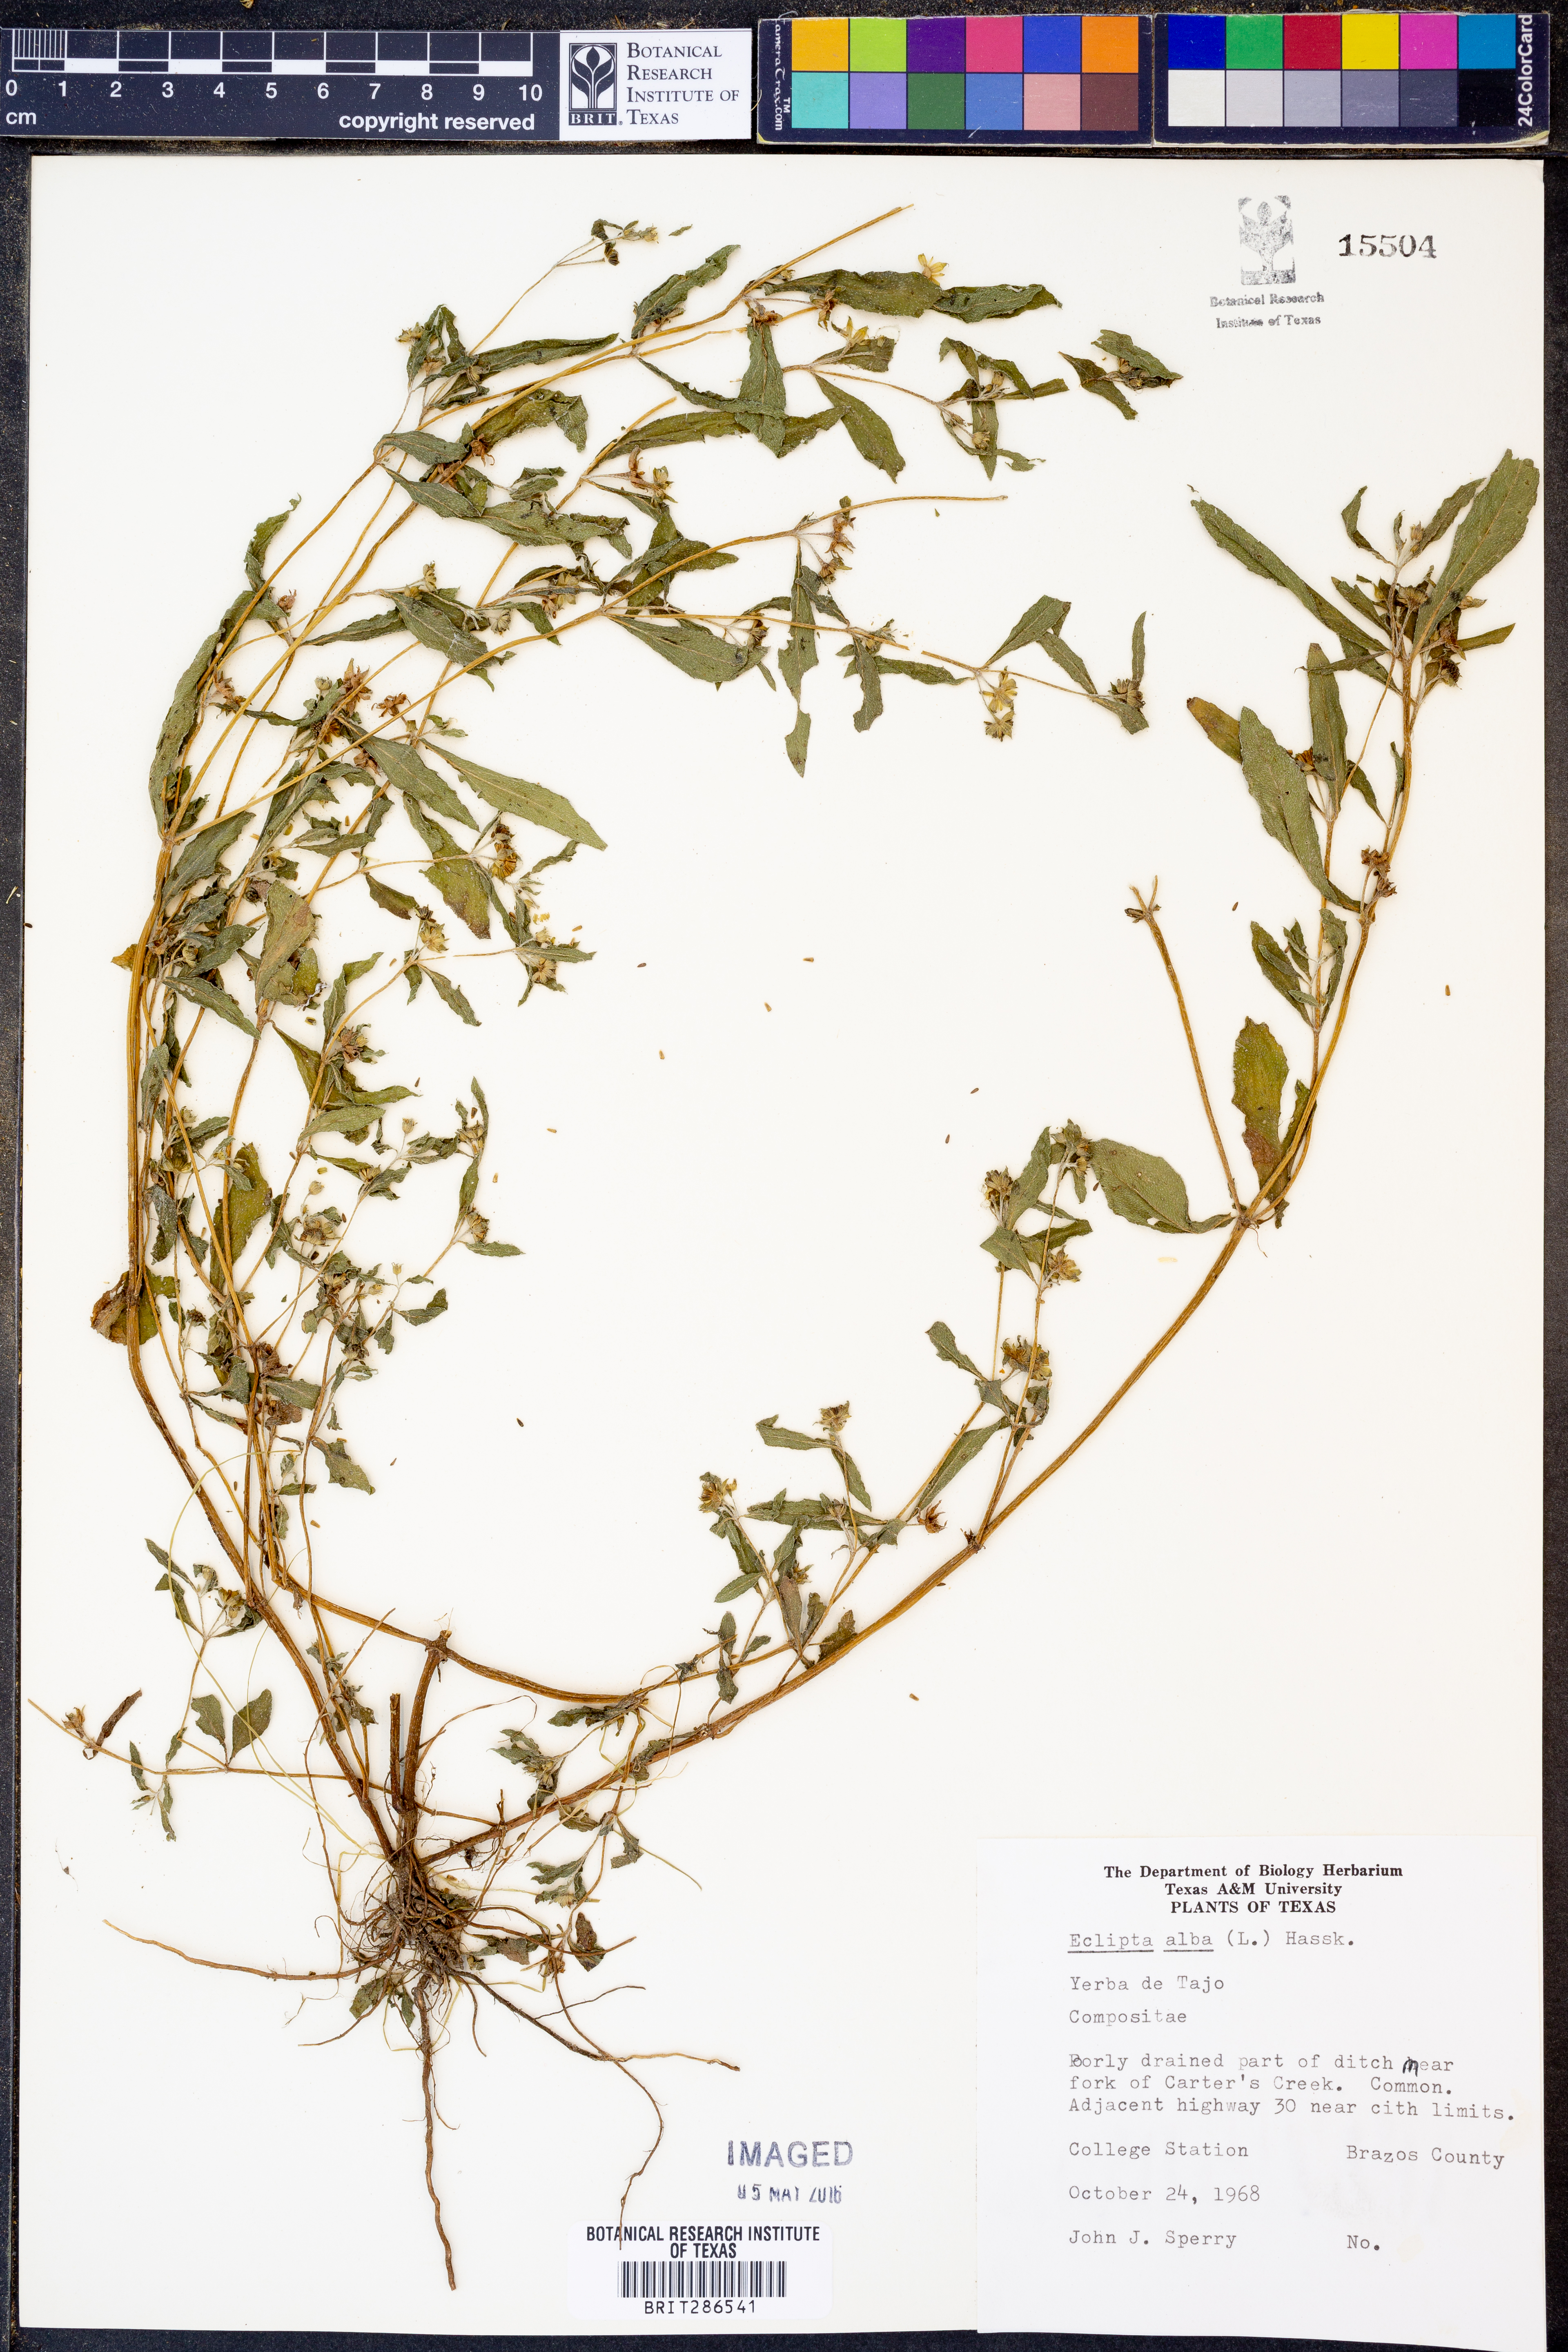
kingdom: Plantae
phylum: Tracheophyta
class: Magnoliopsida
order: Asterales
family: Asteraceae
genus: Eclipta
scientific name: Eclipta alba
